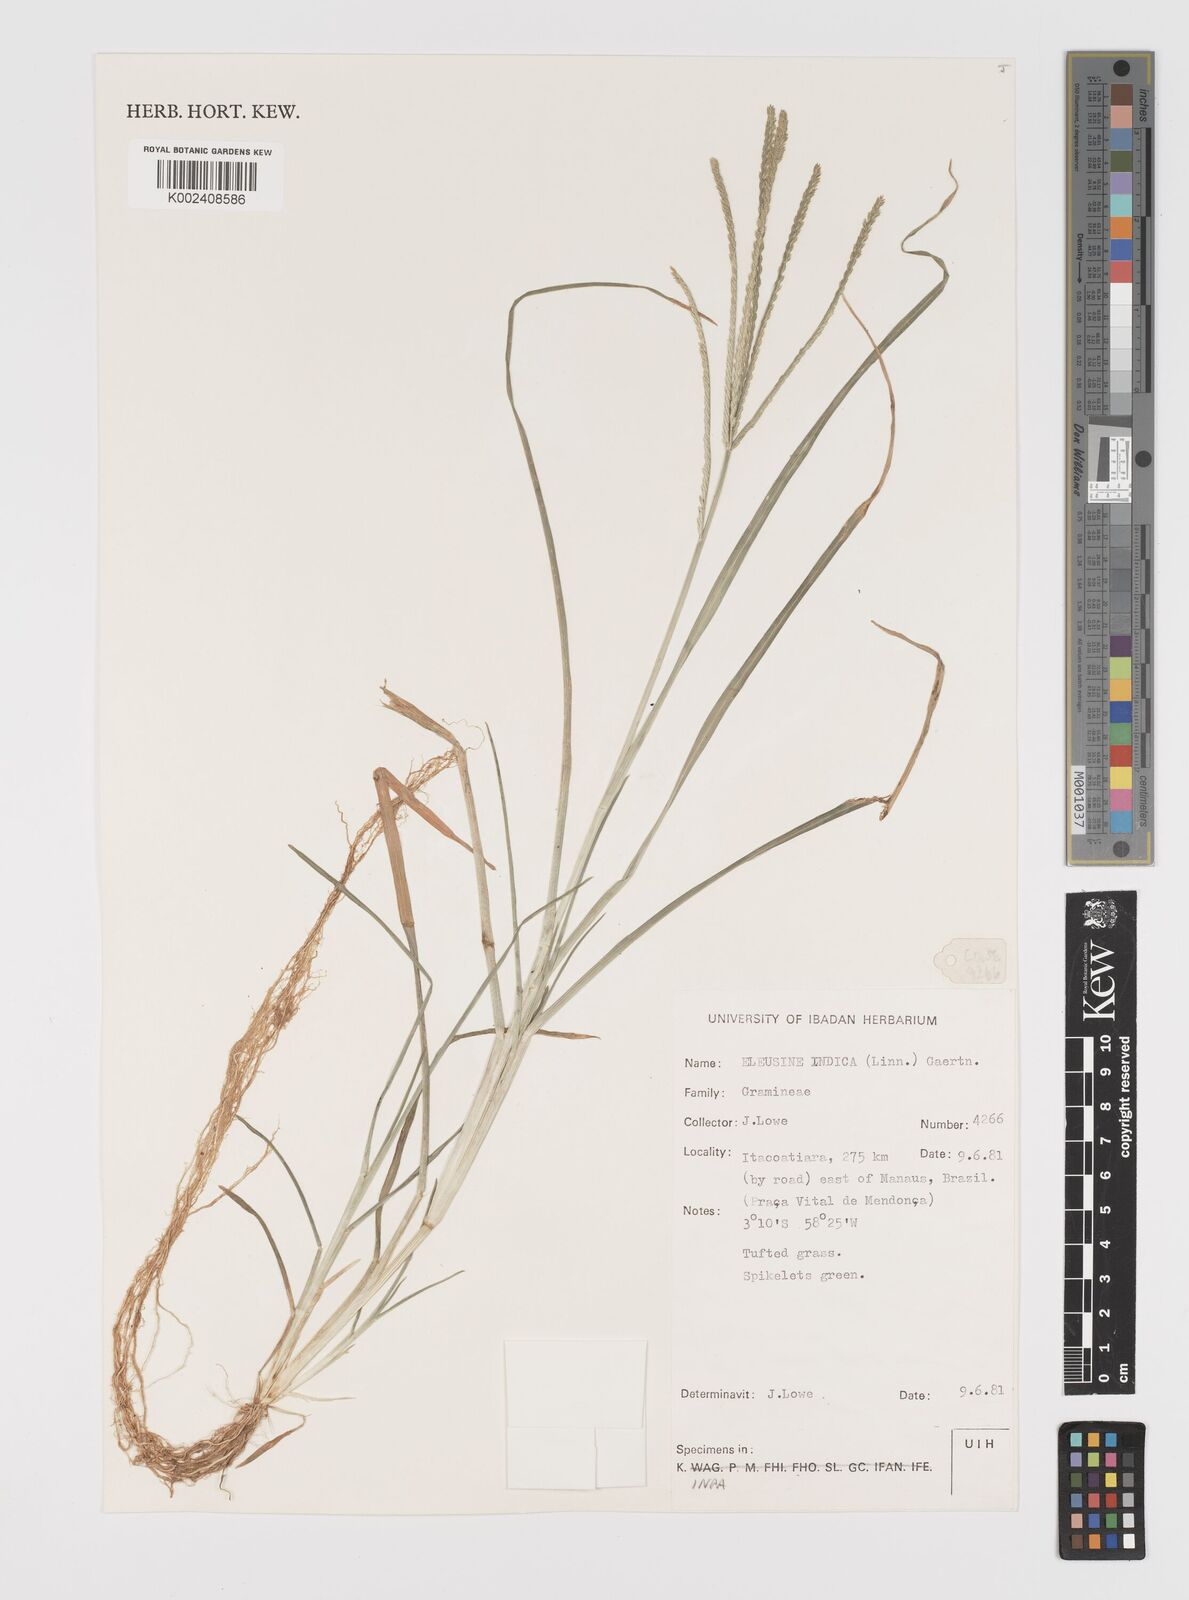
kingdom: Plantae
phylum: Tracheophyta
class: Liliopsida
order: Poales
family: Poaceae
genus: Eleusine
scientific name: Eleusine indica
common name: Yard-grass
